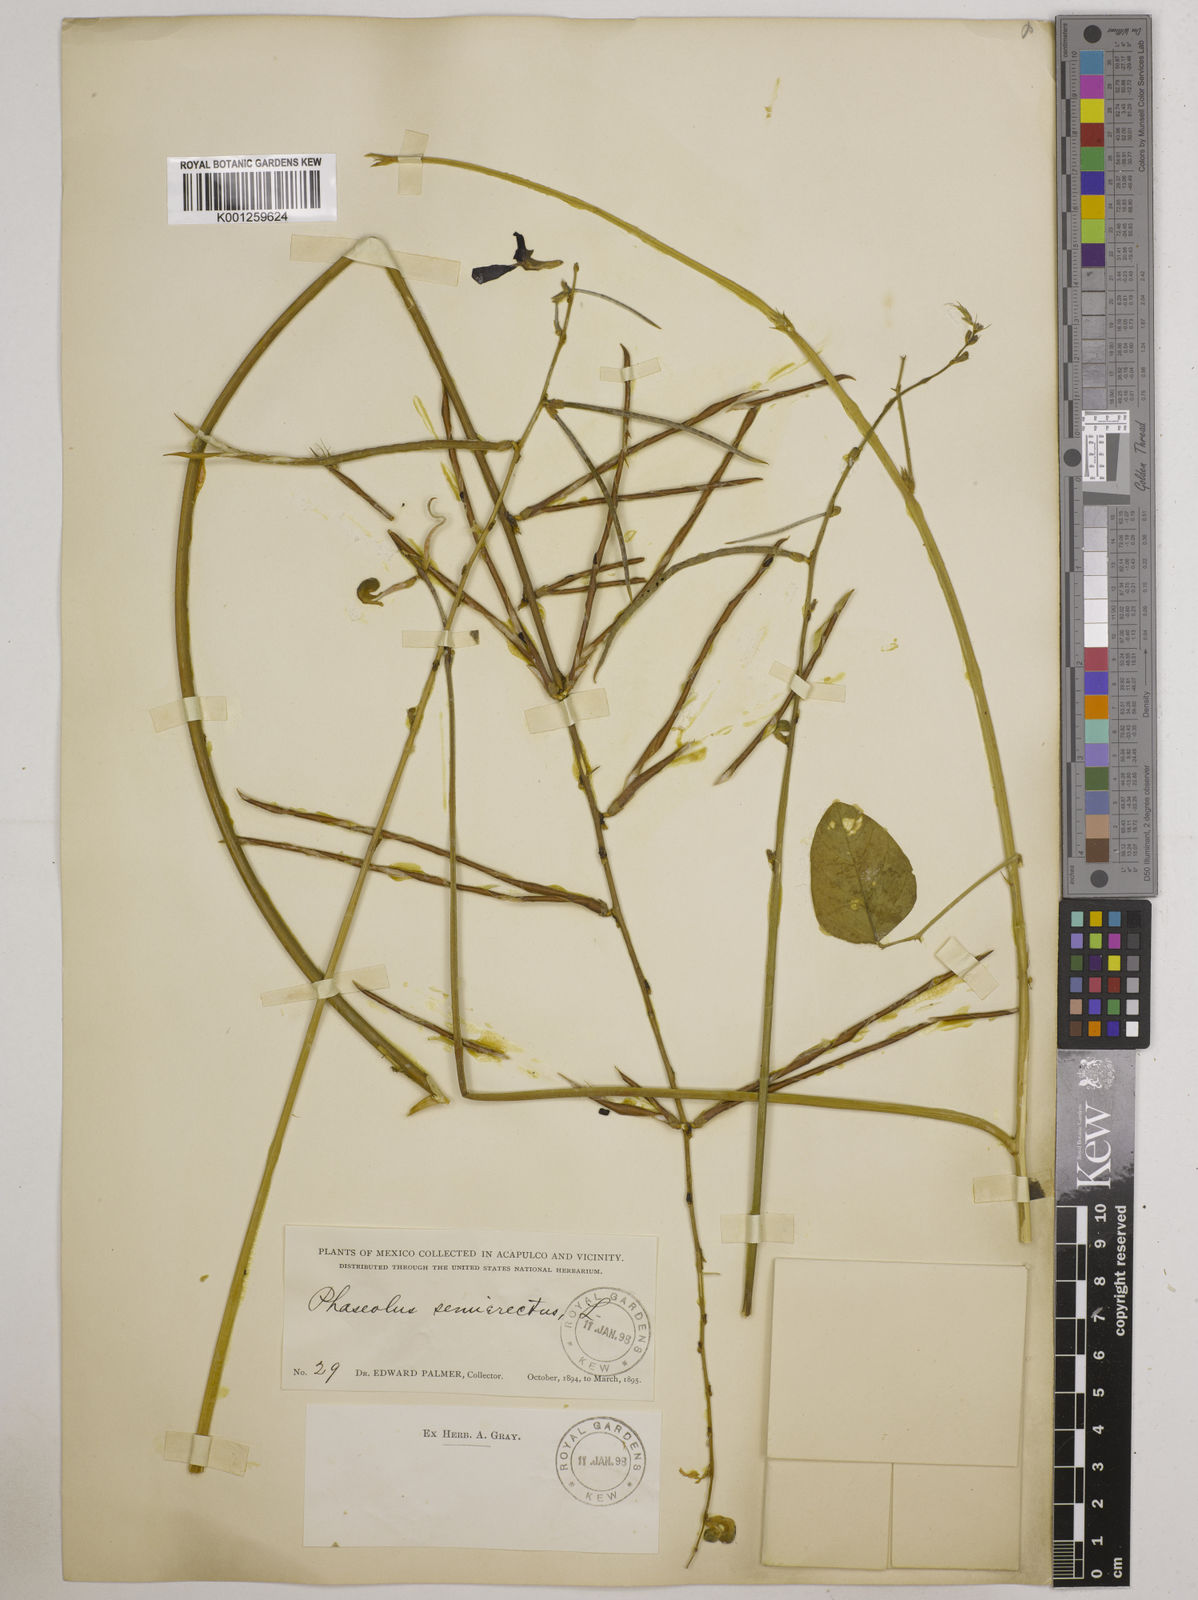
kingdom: Plantae
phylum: Tracheophyta
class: Magnoliopsida
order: Fabales
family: Fabaceae
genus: Macroptilium
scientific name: Macroptilium lathyroides
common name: Wild bushbean
